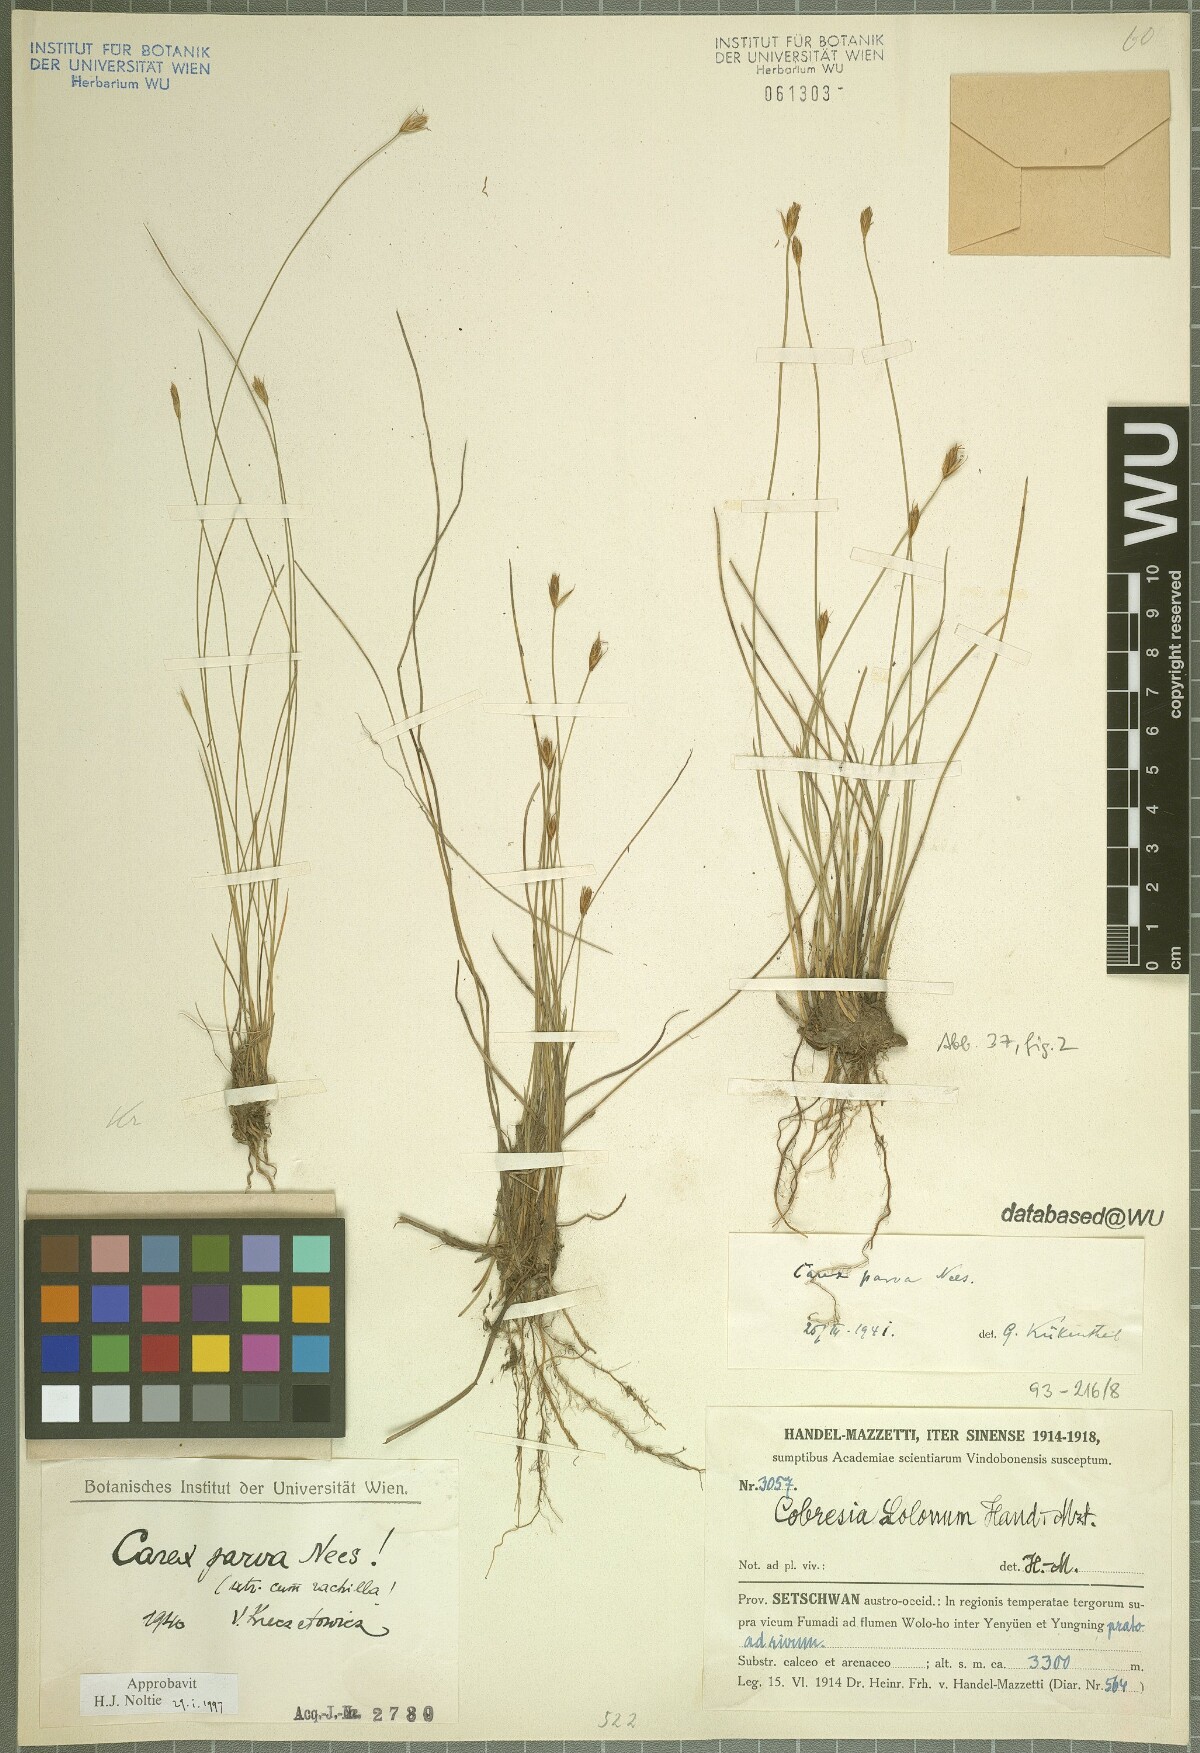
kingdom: Plantae
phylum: Tracheophyta
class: Liliopsida
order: Poales
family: Cyperaceae
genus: Carex
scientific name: Carex parva
